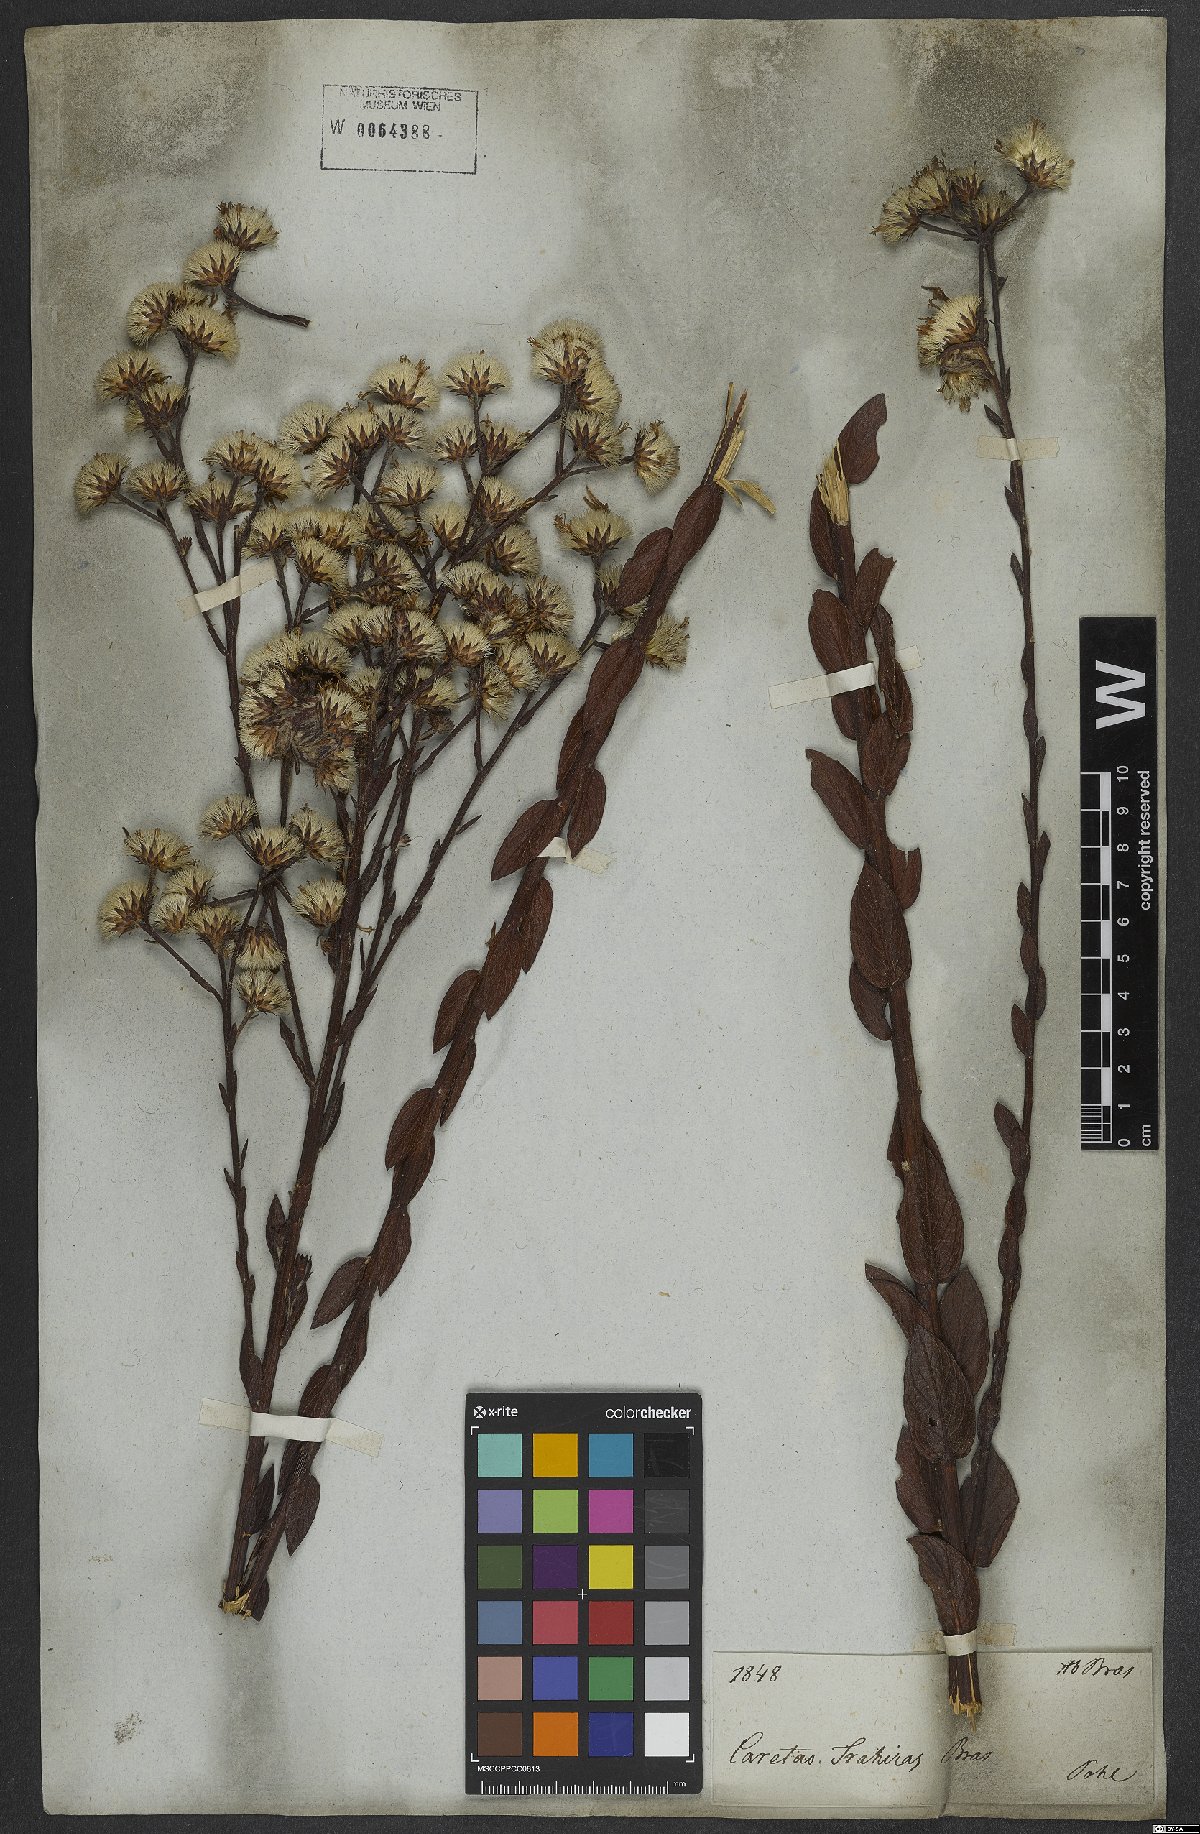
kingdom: Plantae
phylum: Tracheophyta
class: Magnoliopsida
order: Asterales
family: Asteraceae
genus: Lessingianthus
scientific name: Lessingianthus durus
